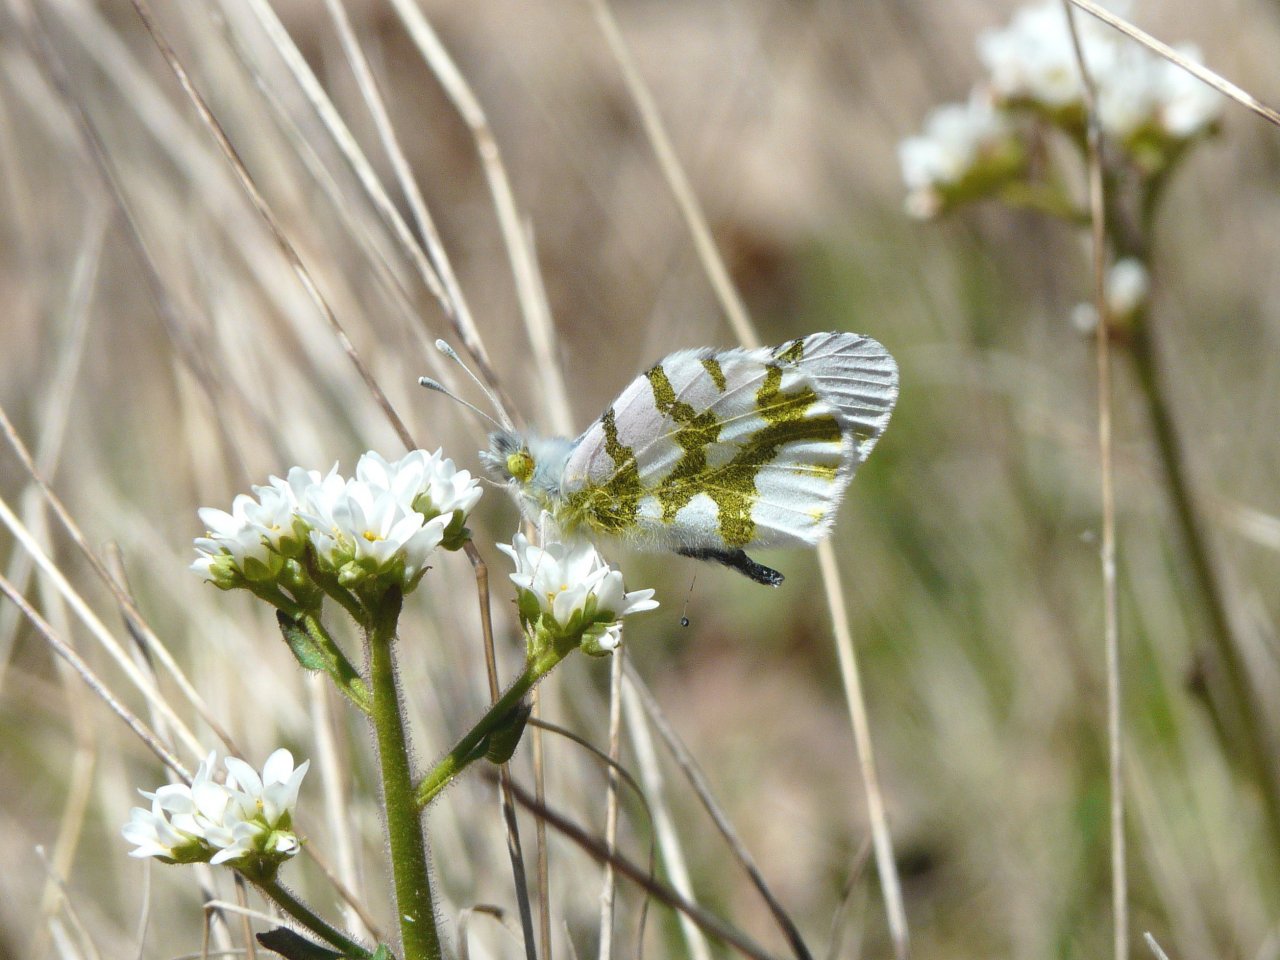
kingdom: Animalia
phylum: Arthropoda
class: Insecta
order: Lepidoptera
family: Pieridae
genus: Euchloe
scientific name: Euchloe olympia
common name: Olympia Marble
